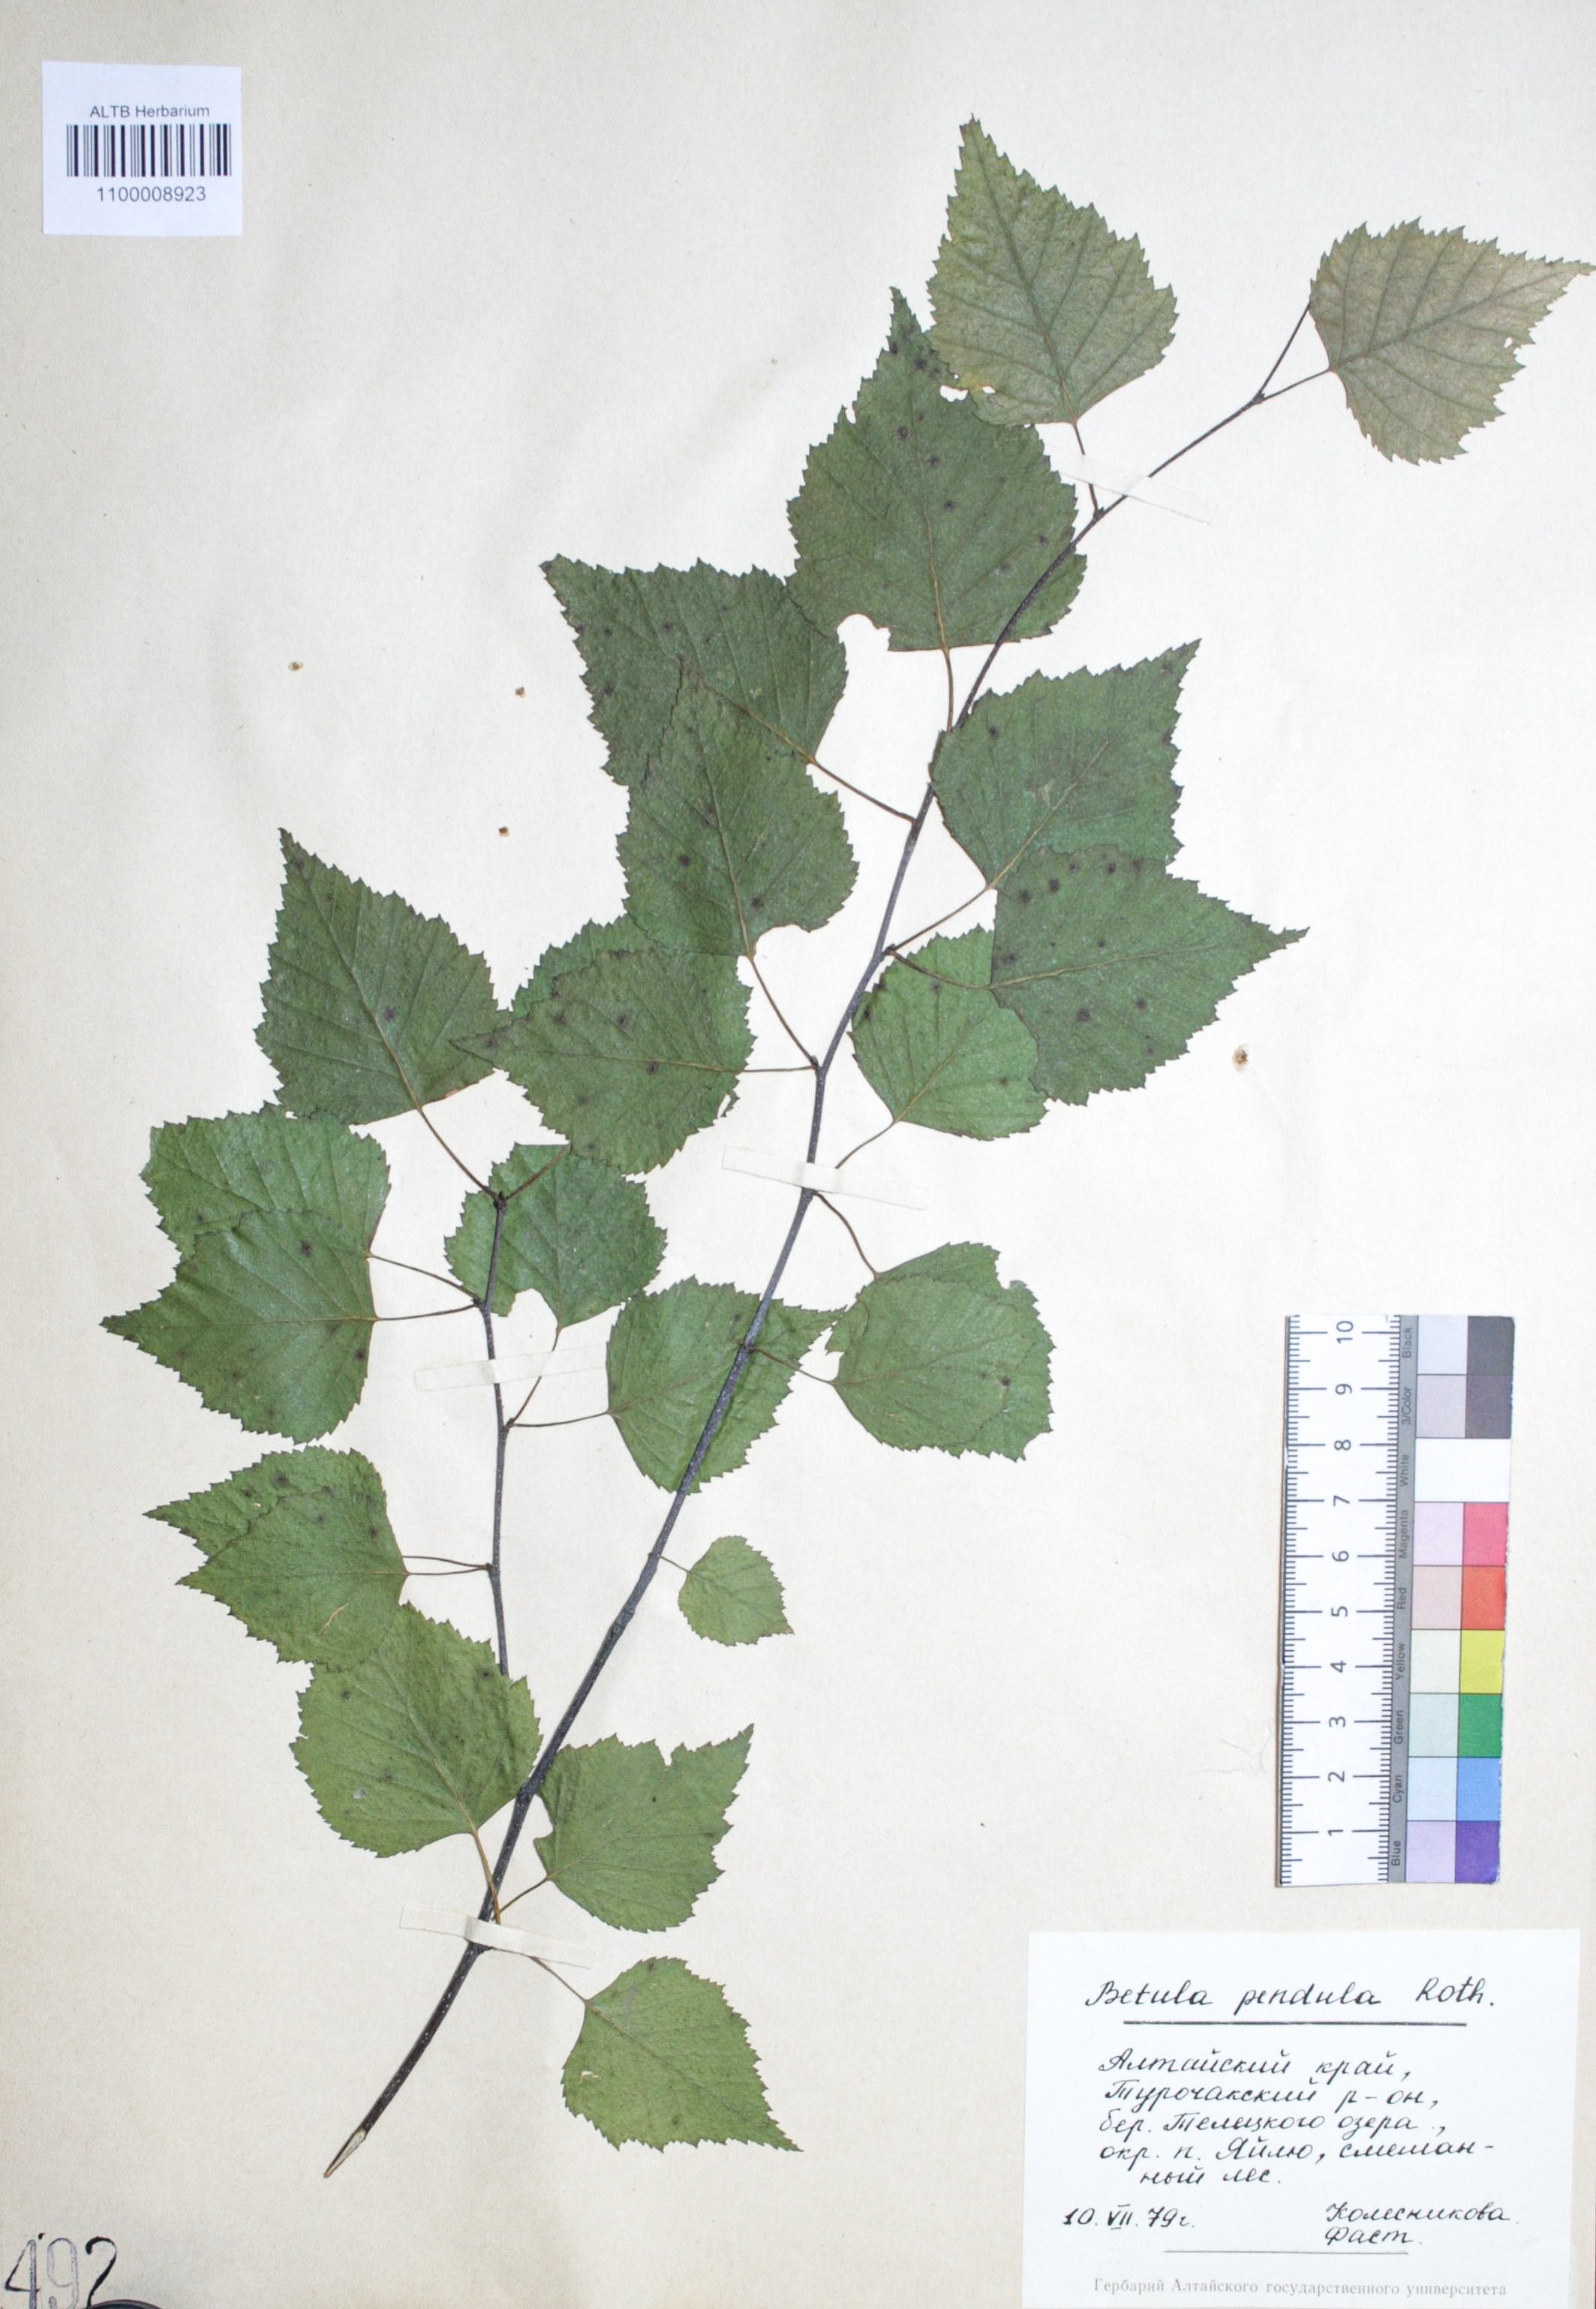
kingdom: Plantae
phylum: Tracheophyta
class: Magnoliopsida
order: Fagales
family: Betulaceae
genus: Betula
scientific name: Betula pendula
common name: Silver birch
